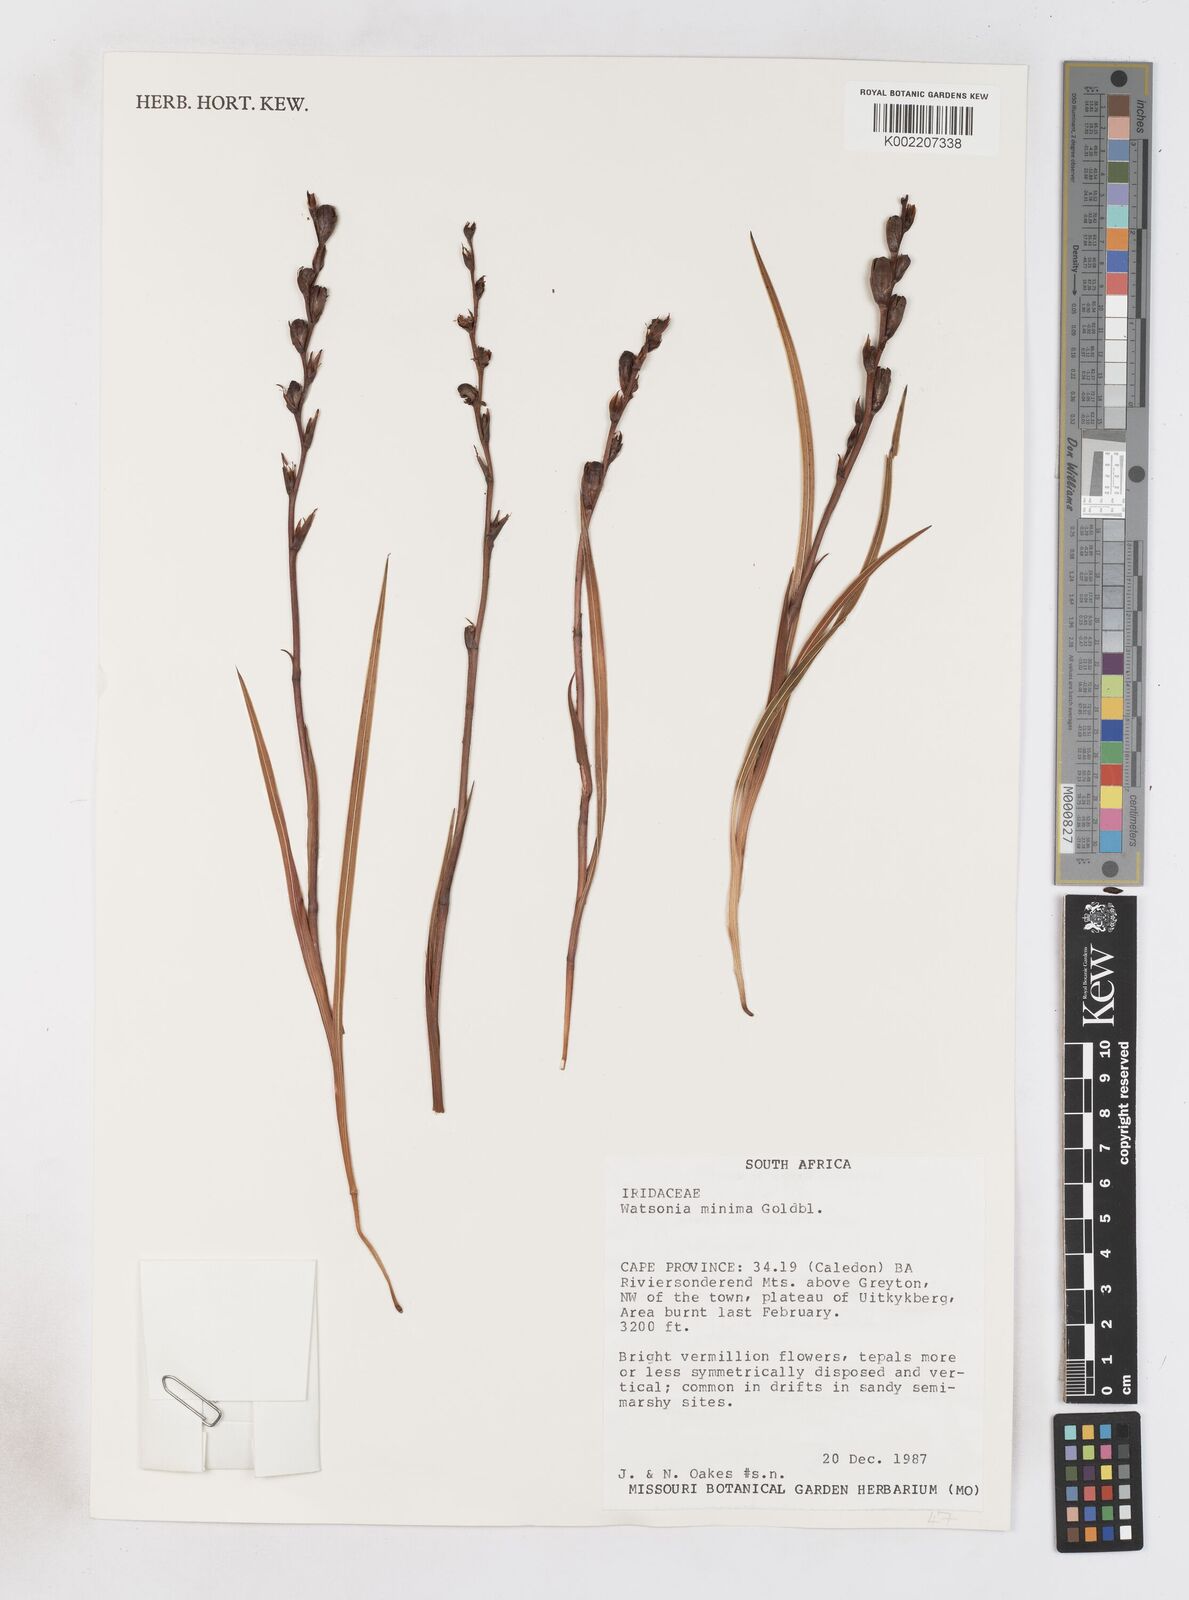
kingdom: Plantae
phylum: Tracheophyta
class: Liliopsida
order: Asparagales
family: Iridaceae
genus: Watsonia
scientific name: Watsonia minima
